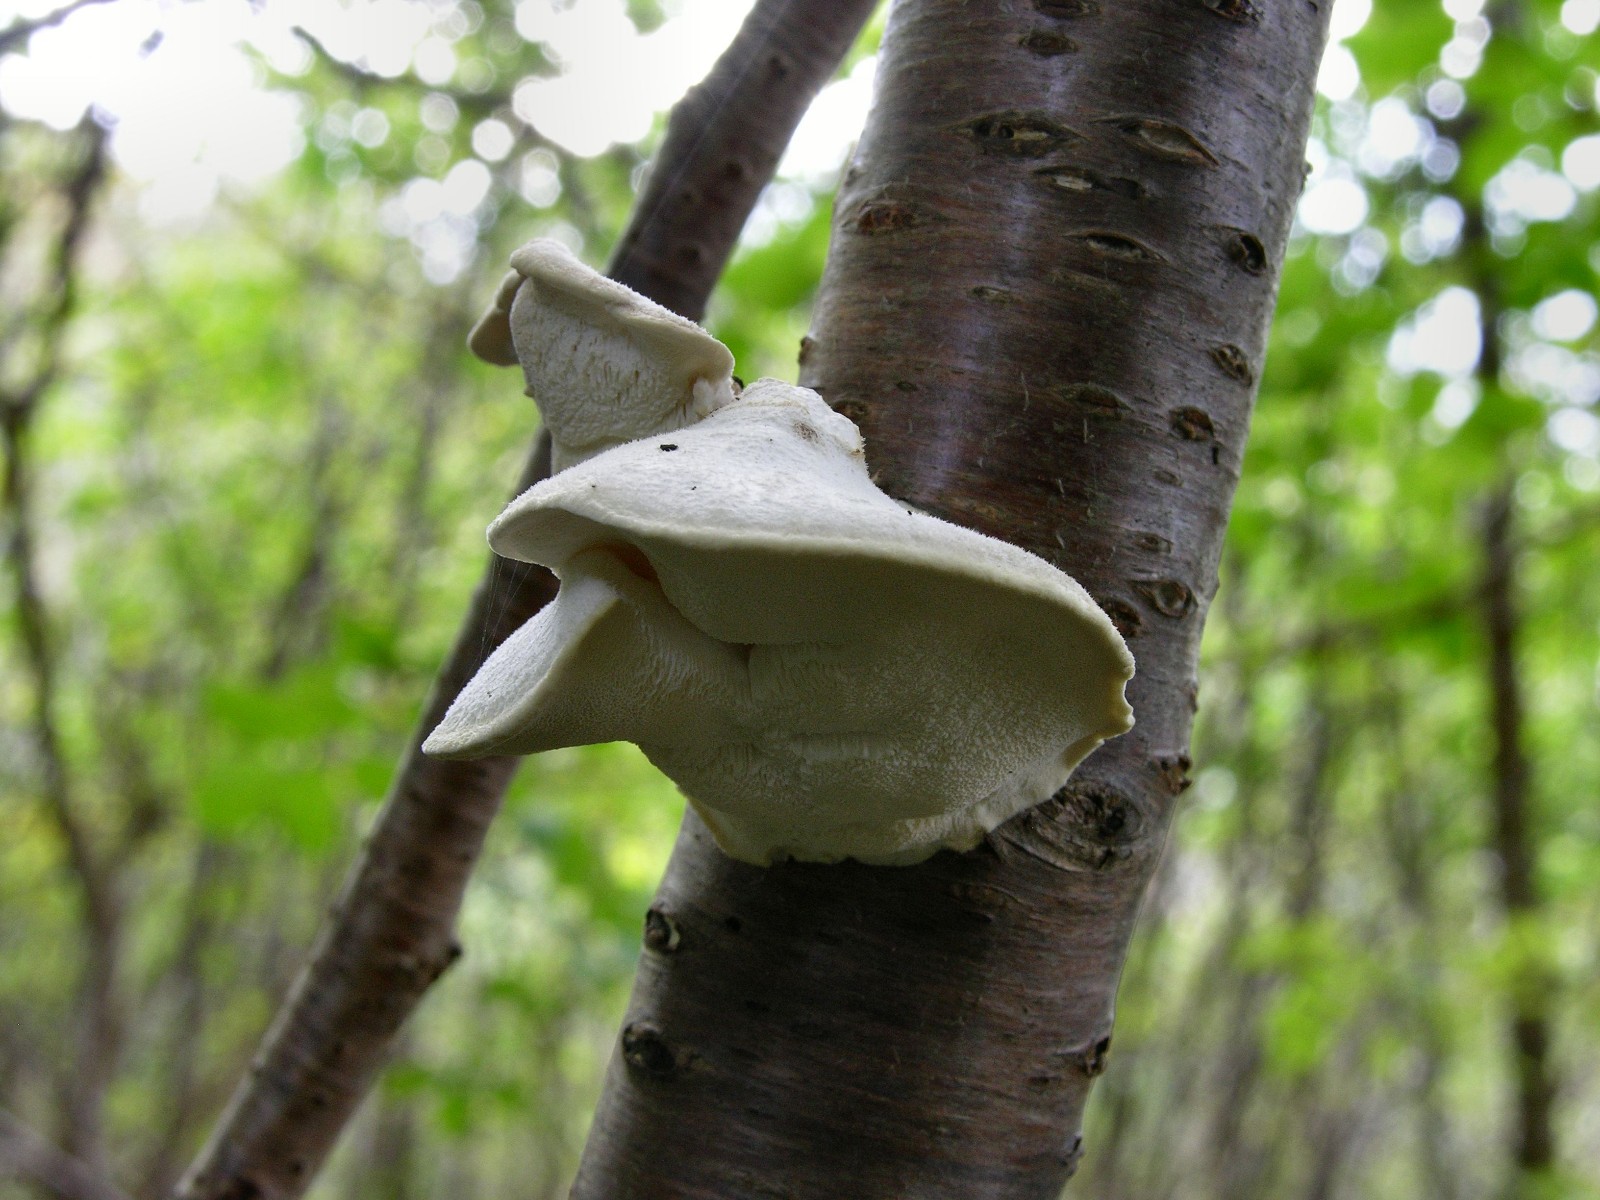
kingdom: Fungi
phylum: Basidiomycota
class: Agaricomycetes
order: Polyporales
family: Dacryobolaceae
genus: Postia
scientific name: Postia tephroleuca
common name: grålig kødporesvamp
